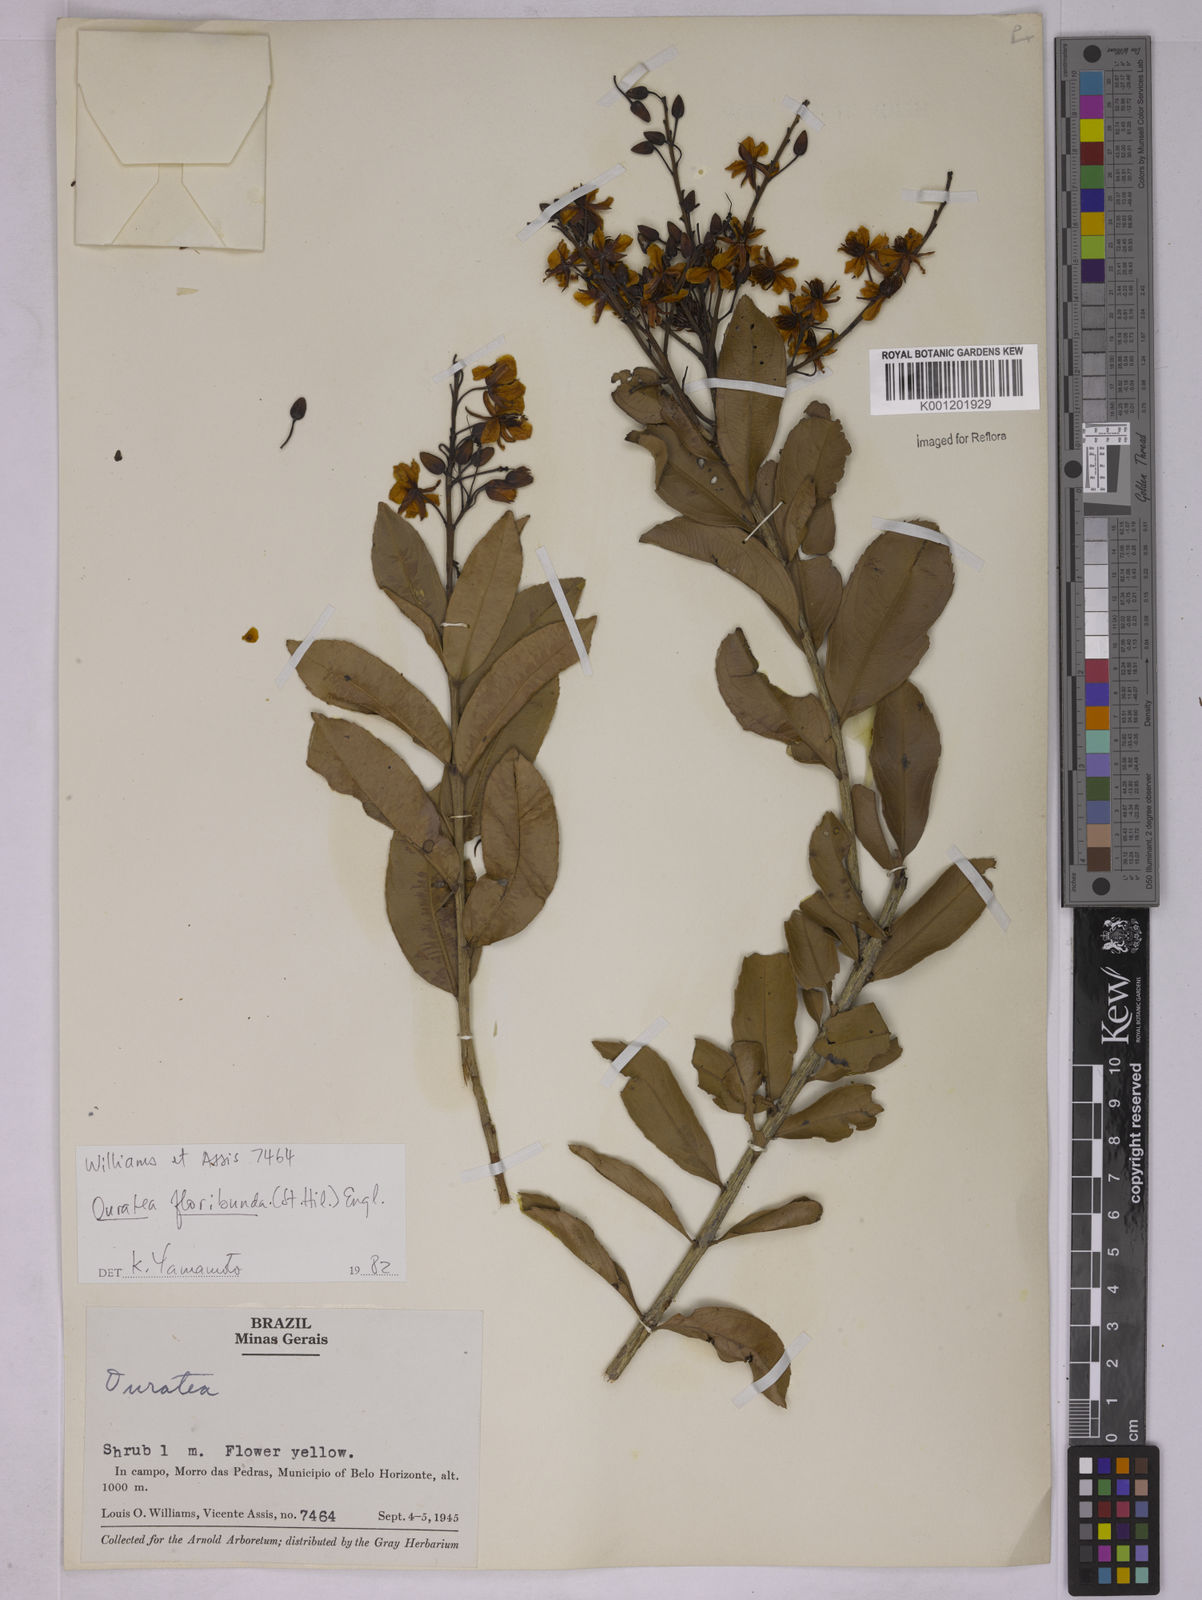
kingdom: Plantae
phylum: Tracheophyta
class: Magnoliopsida
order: Malpighiales
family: Ochnaceae
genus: Ouratea
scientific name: Ouratea floribunda
